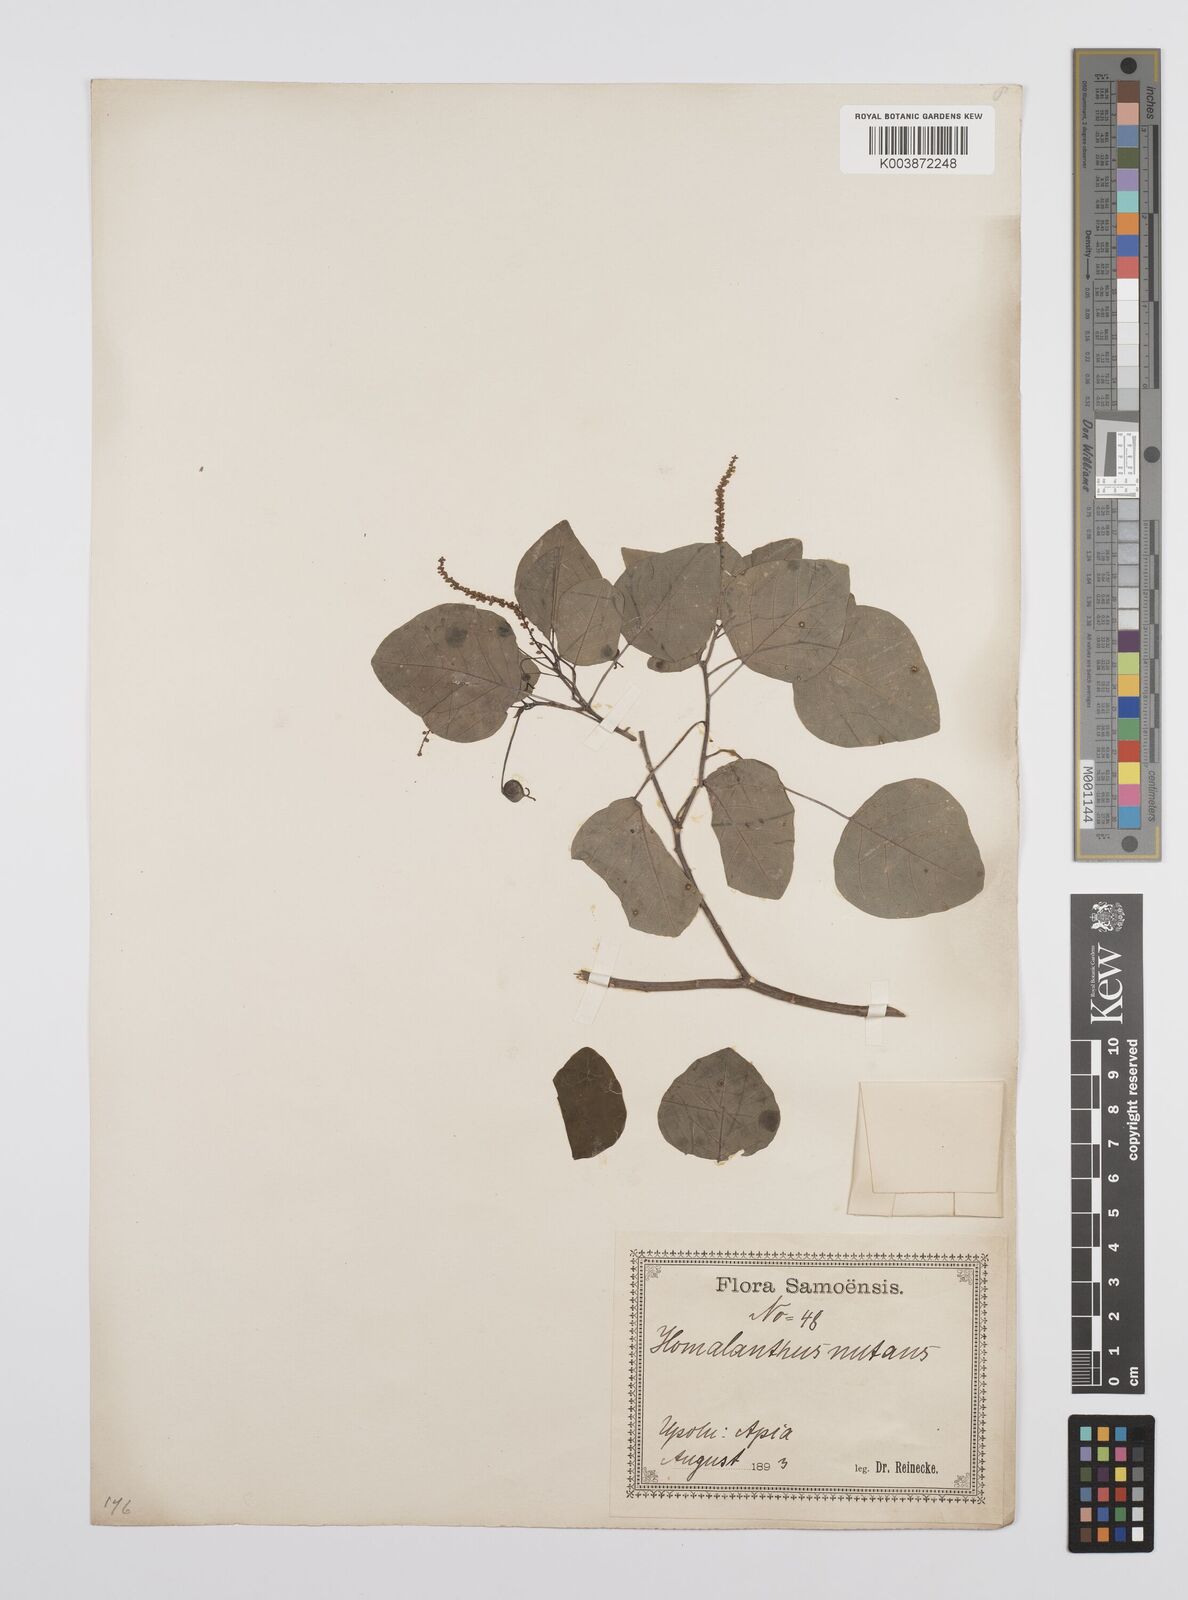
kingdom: Plantae
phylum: Tracheophyta
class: Magnoliopsida
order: Malpighiales
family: Euphorbiaceae
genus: Homalanthus
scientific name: Homalanthus nutans
